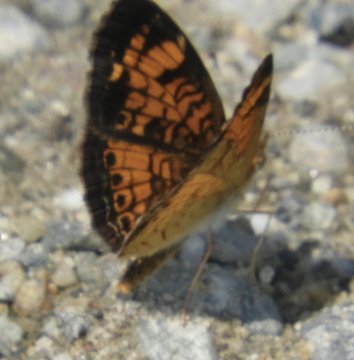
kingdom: Animalia
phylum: Arthropoda
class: Insecta
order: Lepidoptera
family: Nymphalidae
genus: Phyciodes
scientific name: Phyciodes
